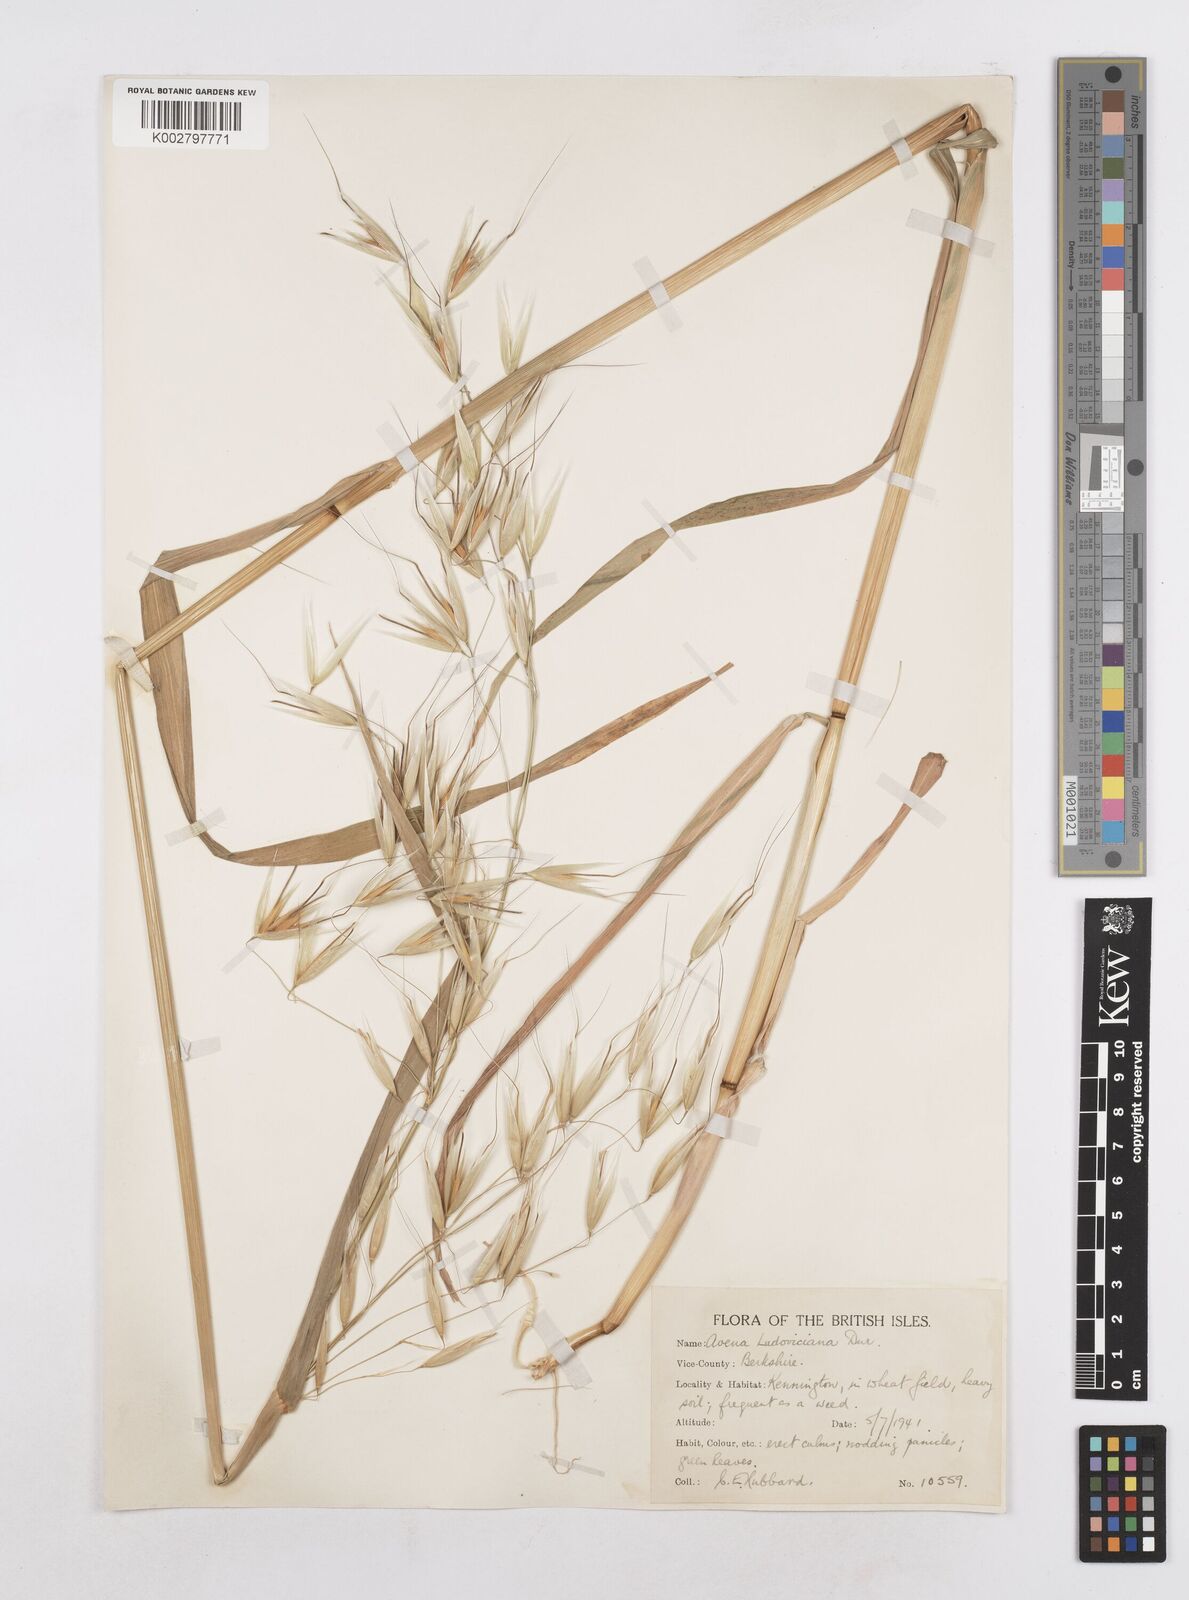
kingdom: Plantae
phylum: Tracheophyta
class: Liliopsida
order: Poales
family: Poaceae
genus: Avena
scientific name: Avena sterilis
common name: Animated oat
